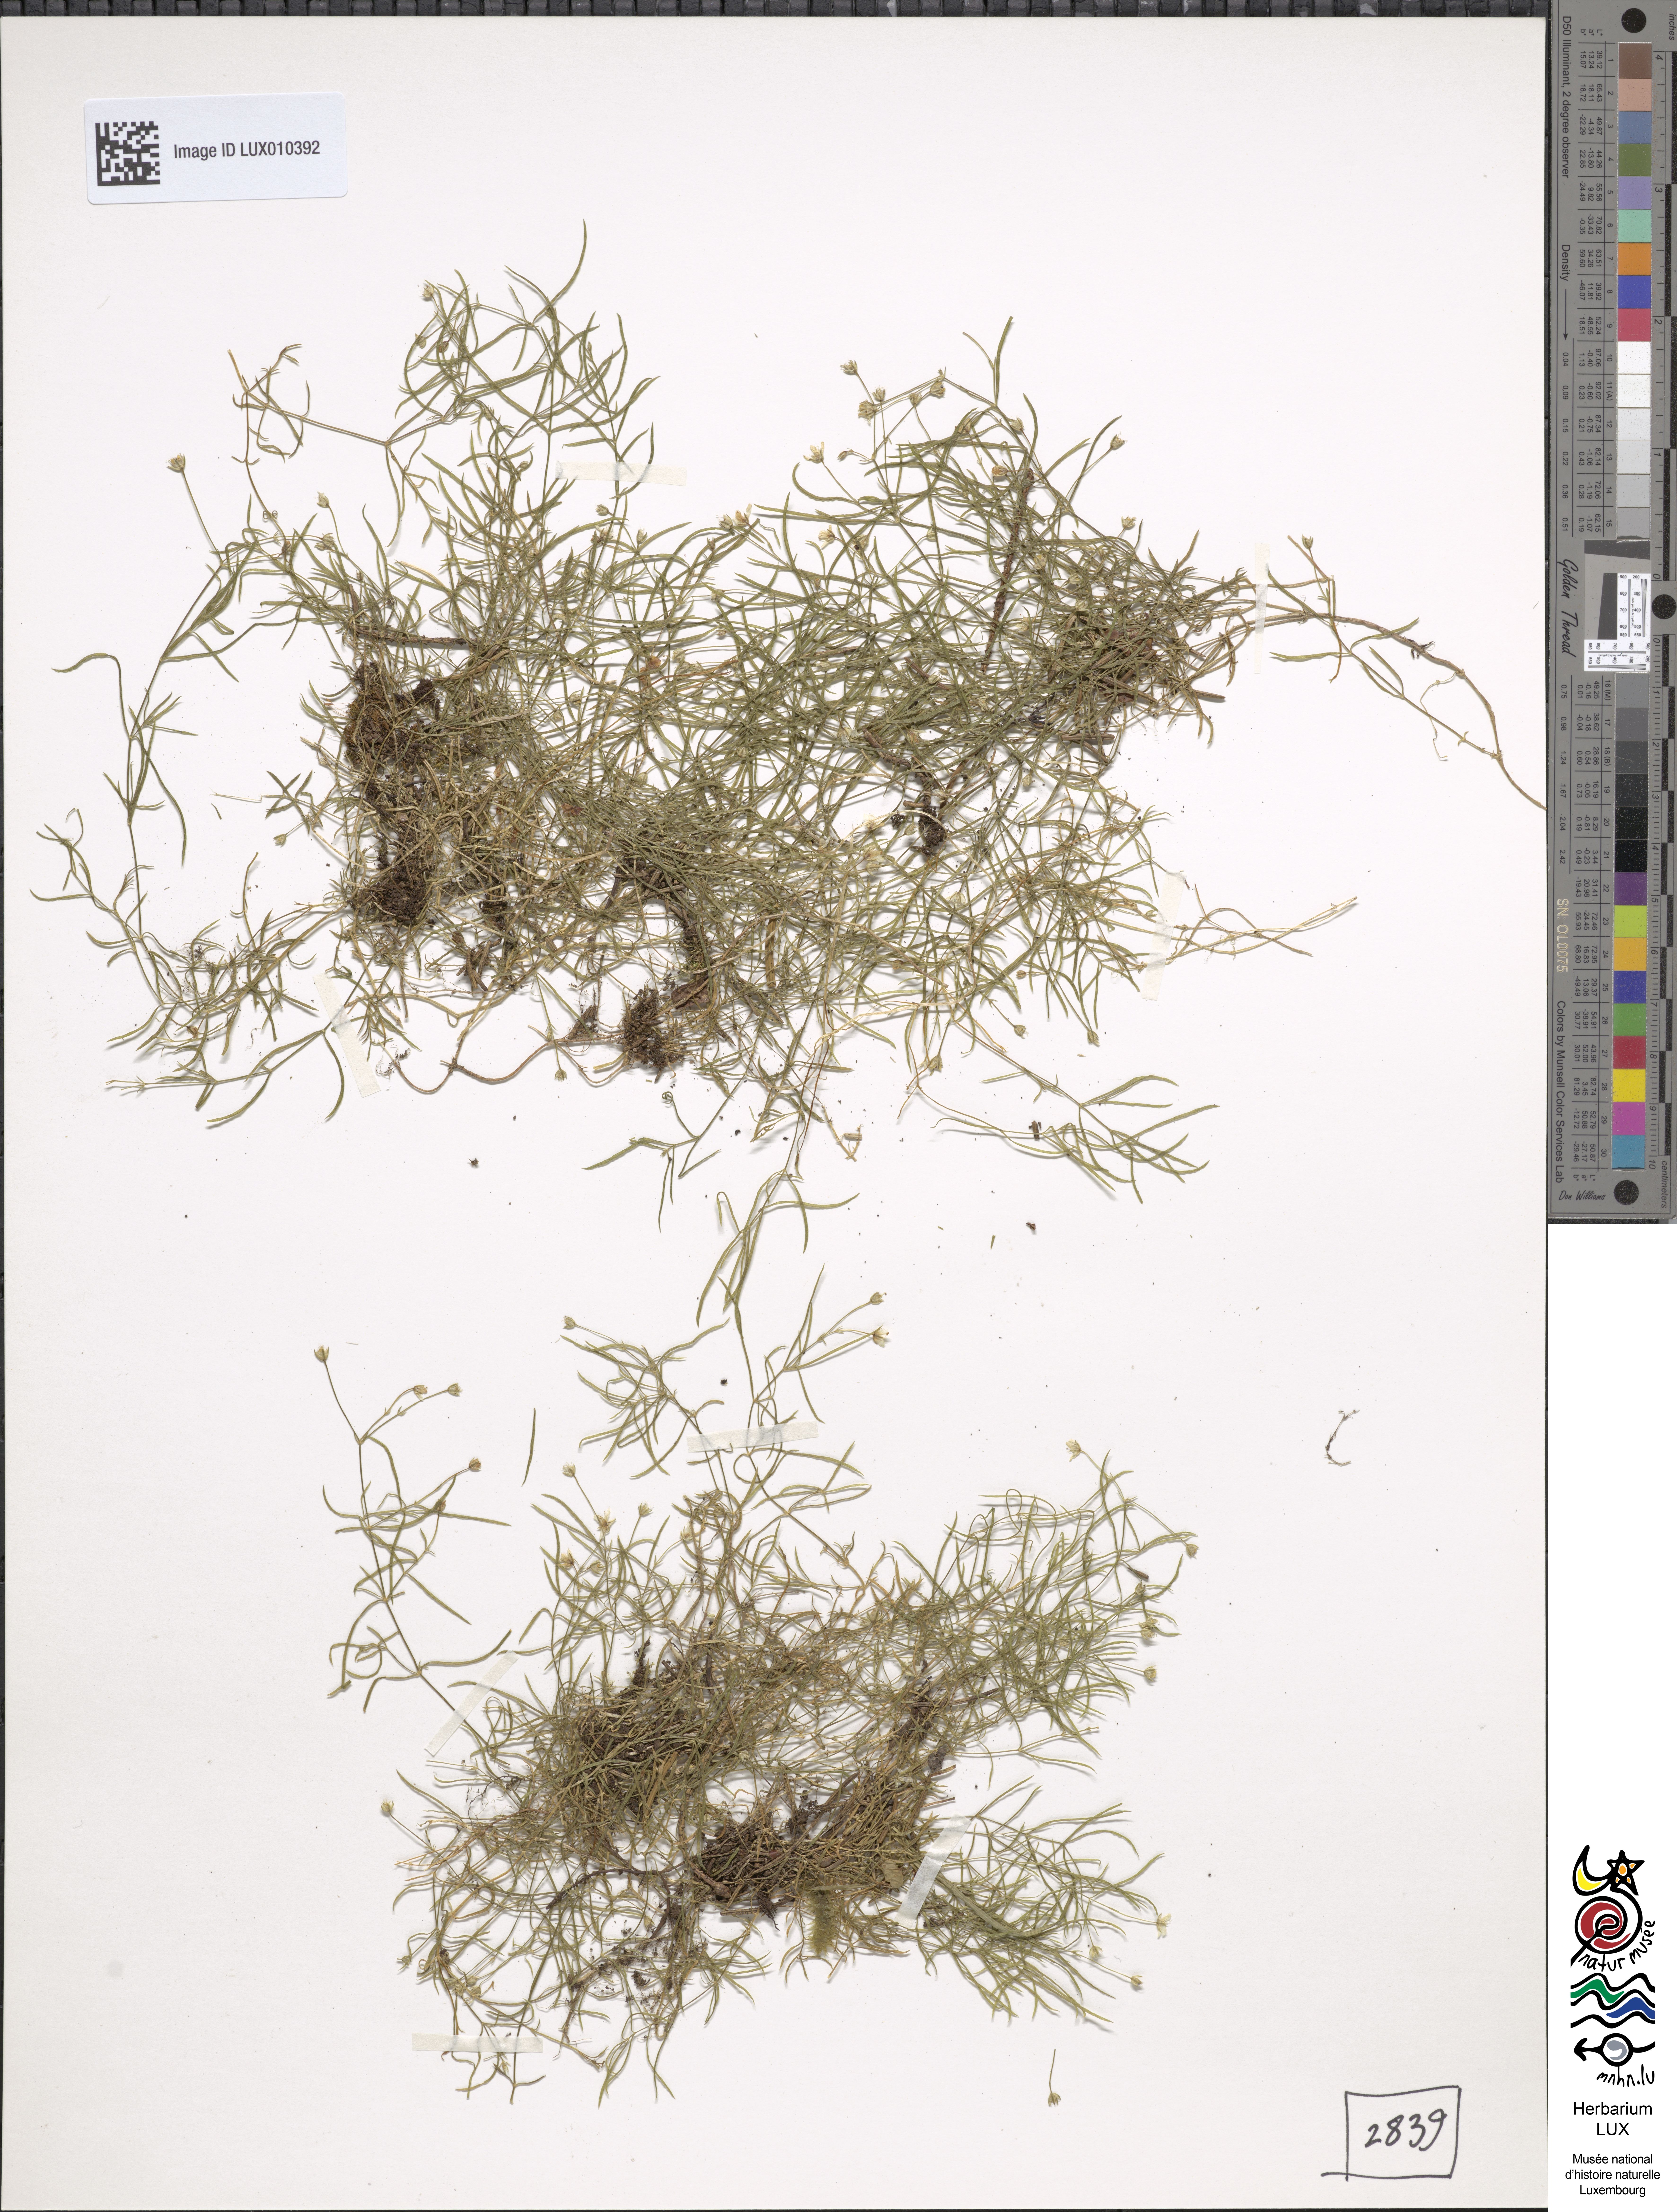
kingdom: Plantae
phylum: Tracheophyta
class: Magnoliopsida
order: Caryophyllales
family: Caryophyllaceae
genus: Moehringia
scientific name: Moehringia muscosa
